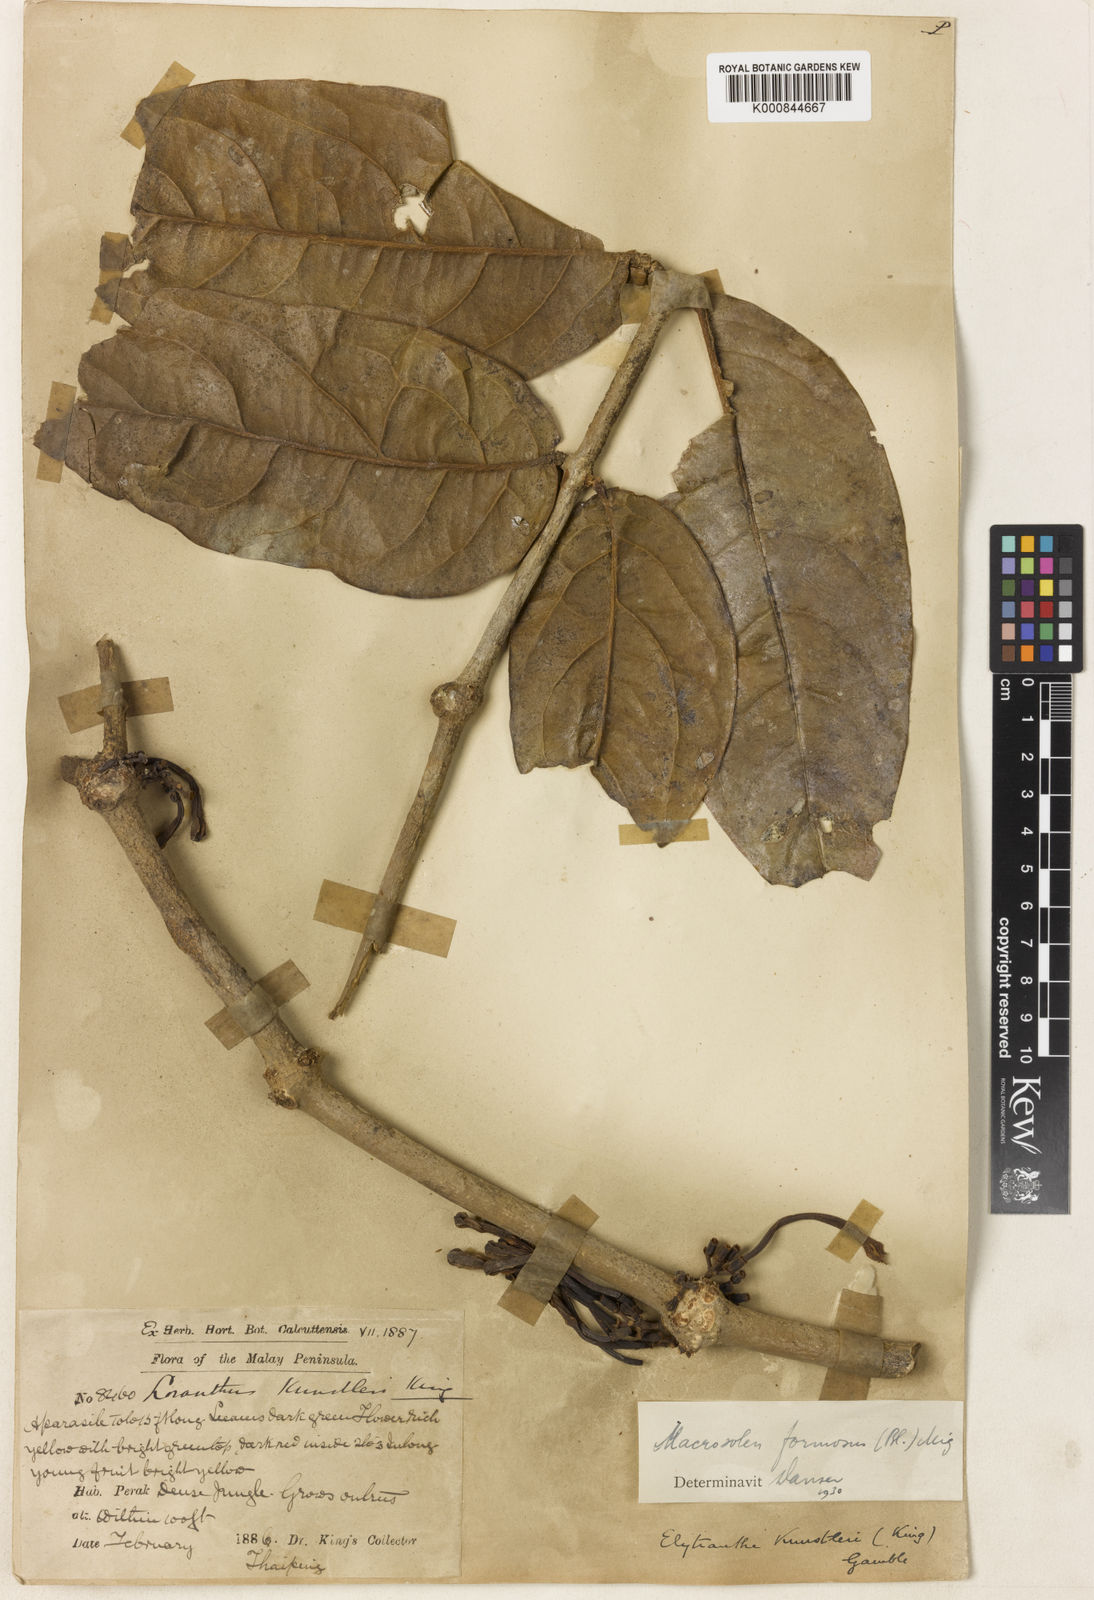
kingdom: Plantae
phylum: Tracheophyta
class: Magnoliopsida
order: Santalales
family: Loranthaceae
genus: Macrosolen
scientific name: Macrosolen formosus
